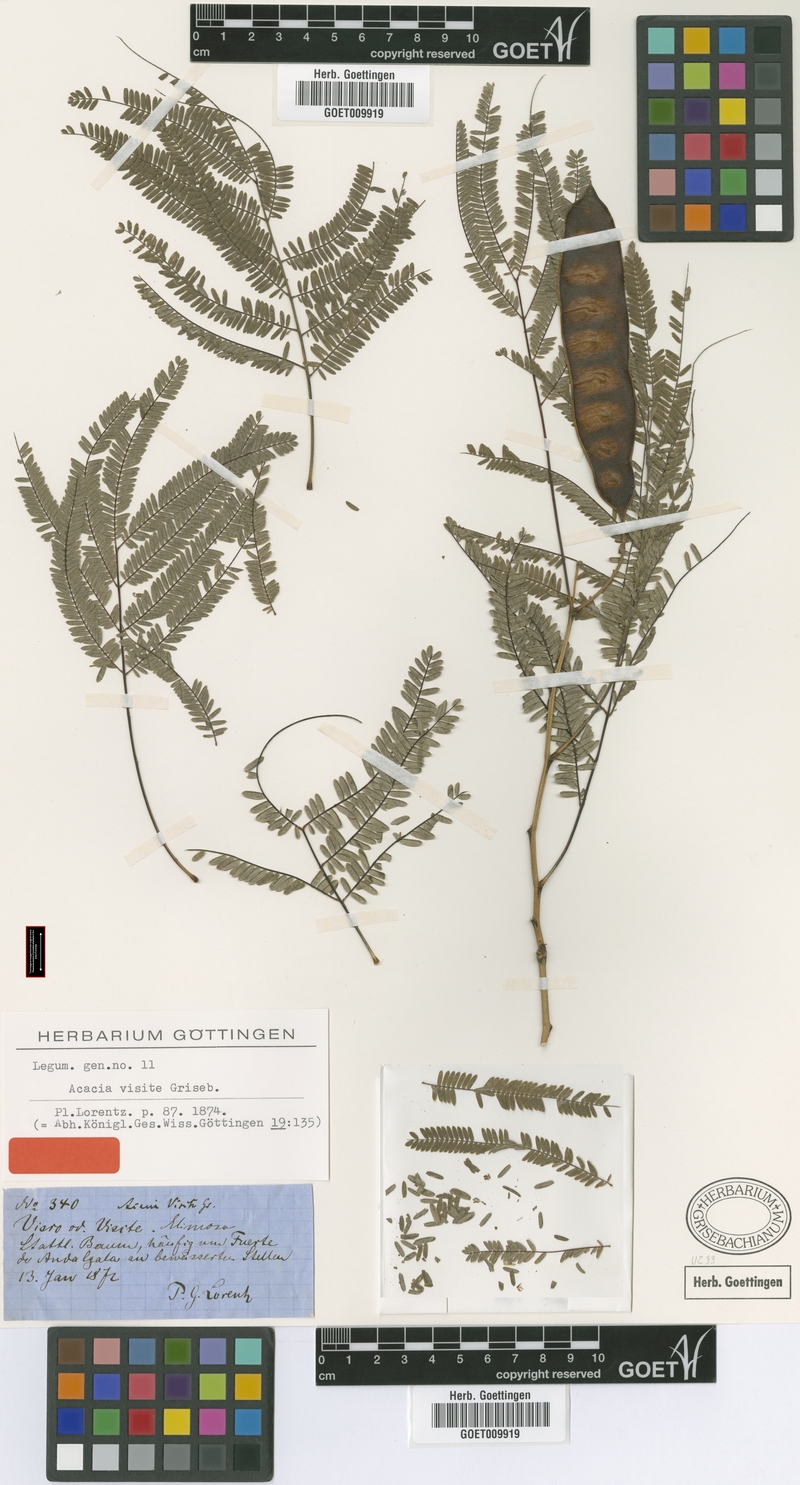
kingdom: Plantae
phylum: Tracheophyta
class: Magnoliopsida
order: Fabales
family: Fabaceae
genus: Parasenegalia
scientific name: Parasenegalia visco
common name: Visco
